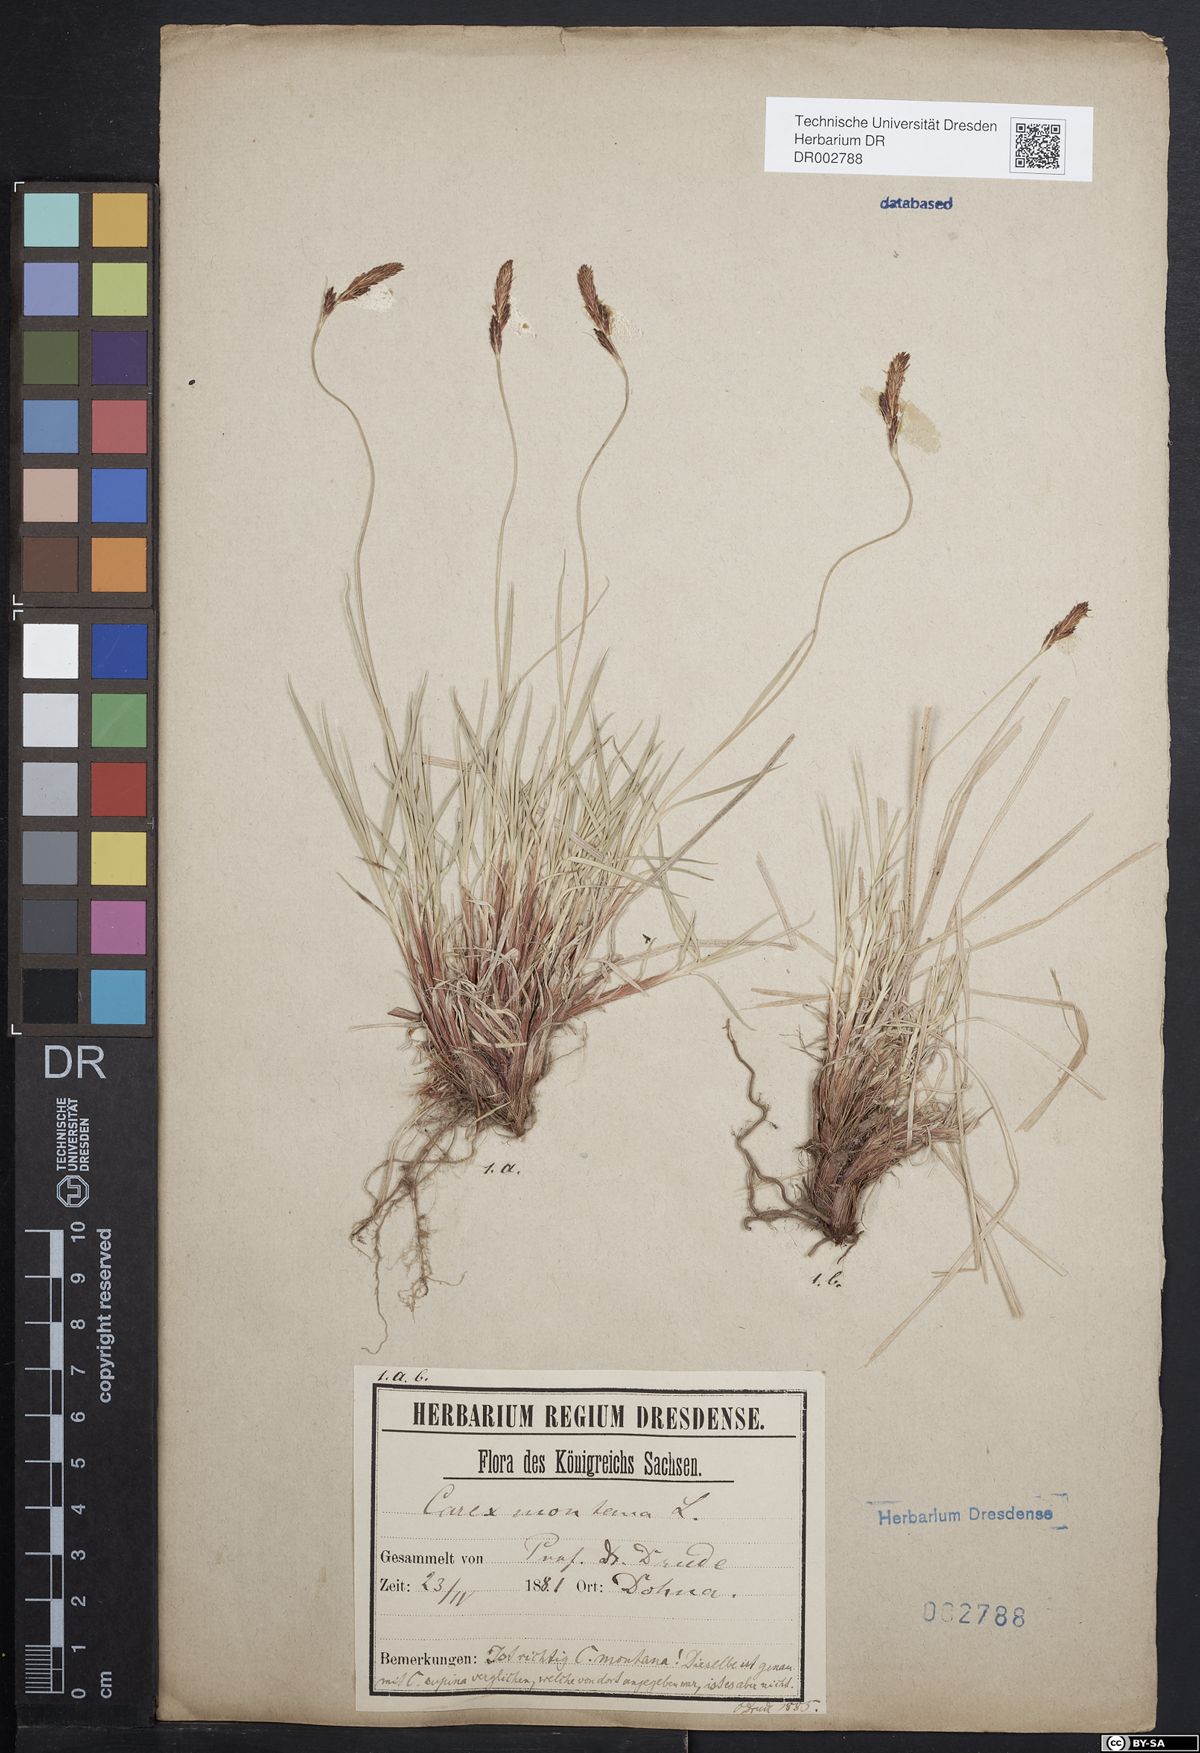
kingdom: Plantae
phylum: Tracheophyta
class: Liliopsida
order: Poales
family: Cyperaceae
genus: Carex
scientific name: Carex montana
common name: Soft-leaved sedge
